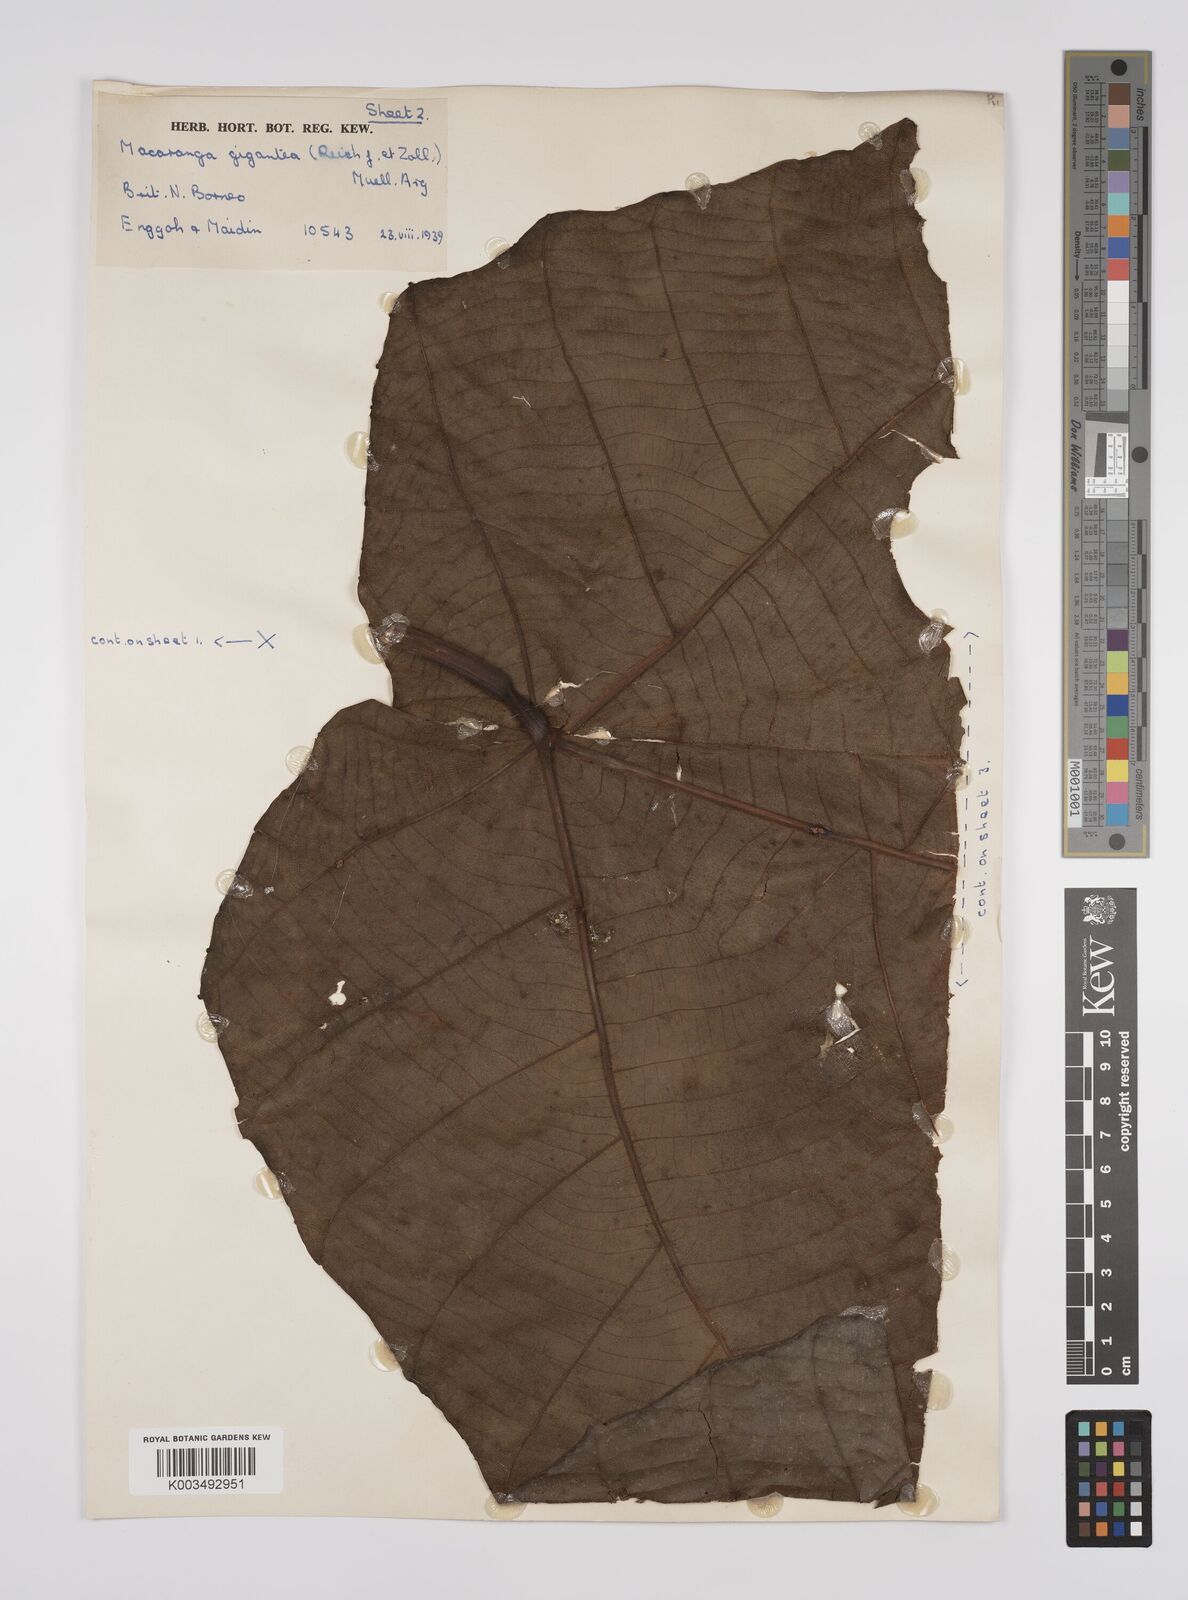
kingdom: Plantae
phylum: Tracheophyta
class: Magnoliopsida
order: Malpighiales
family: Euphorbiaceae
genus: Macaranga
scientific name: Macaranga gigantea
